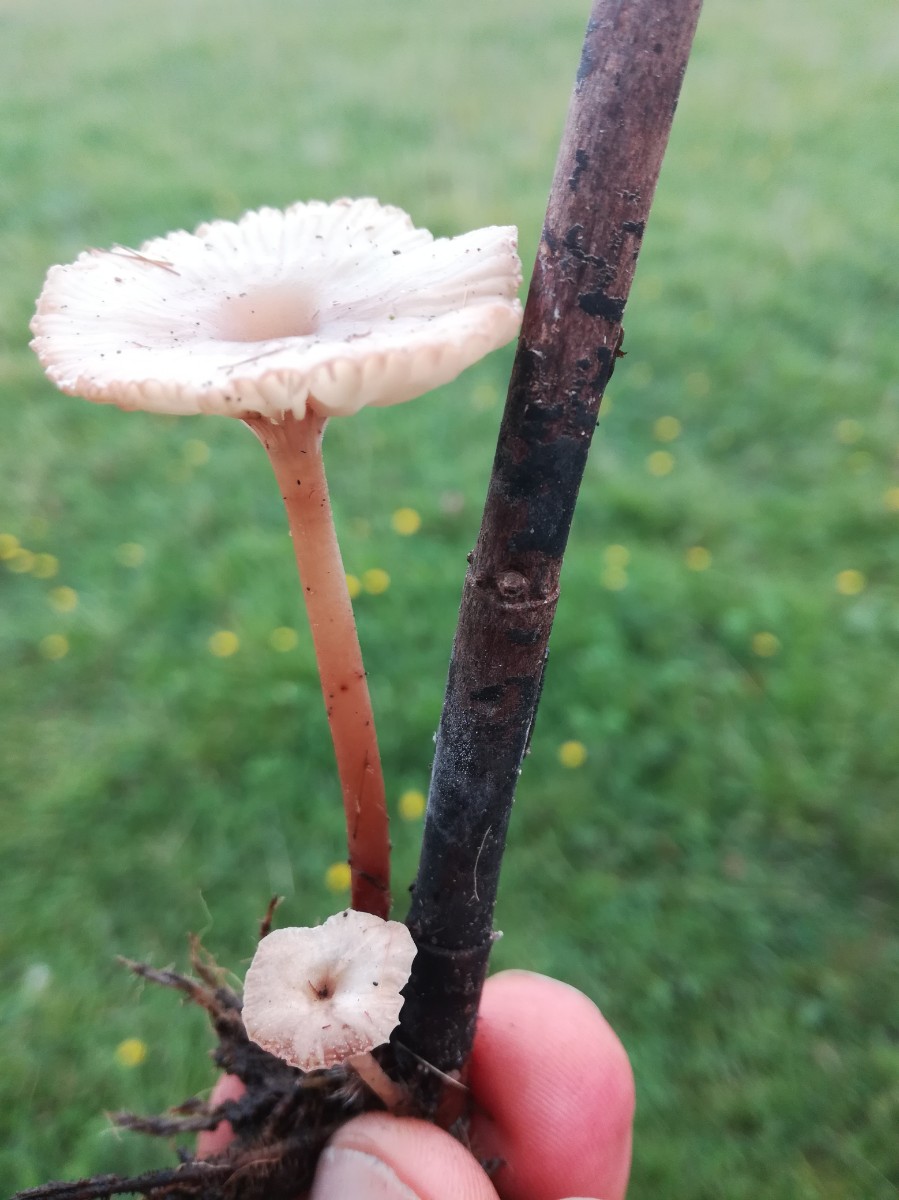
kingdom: Fungi
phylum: Basidiomycota
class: Agaricomycetes
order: Agaricales
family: Mycenaceae
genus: Mycena
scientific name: Mycena belliae
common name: tagrørs-huesvamp
